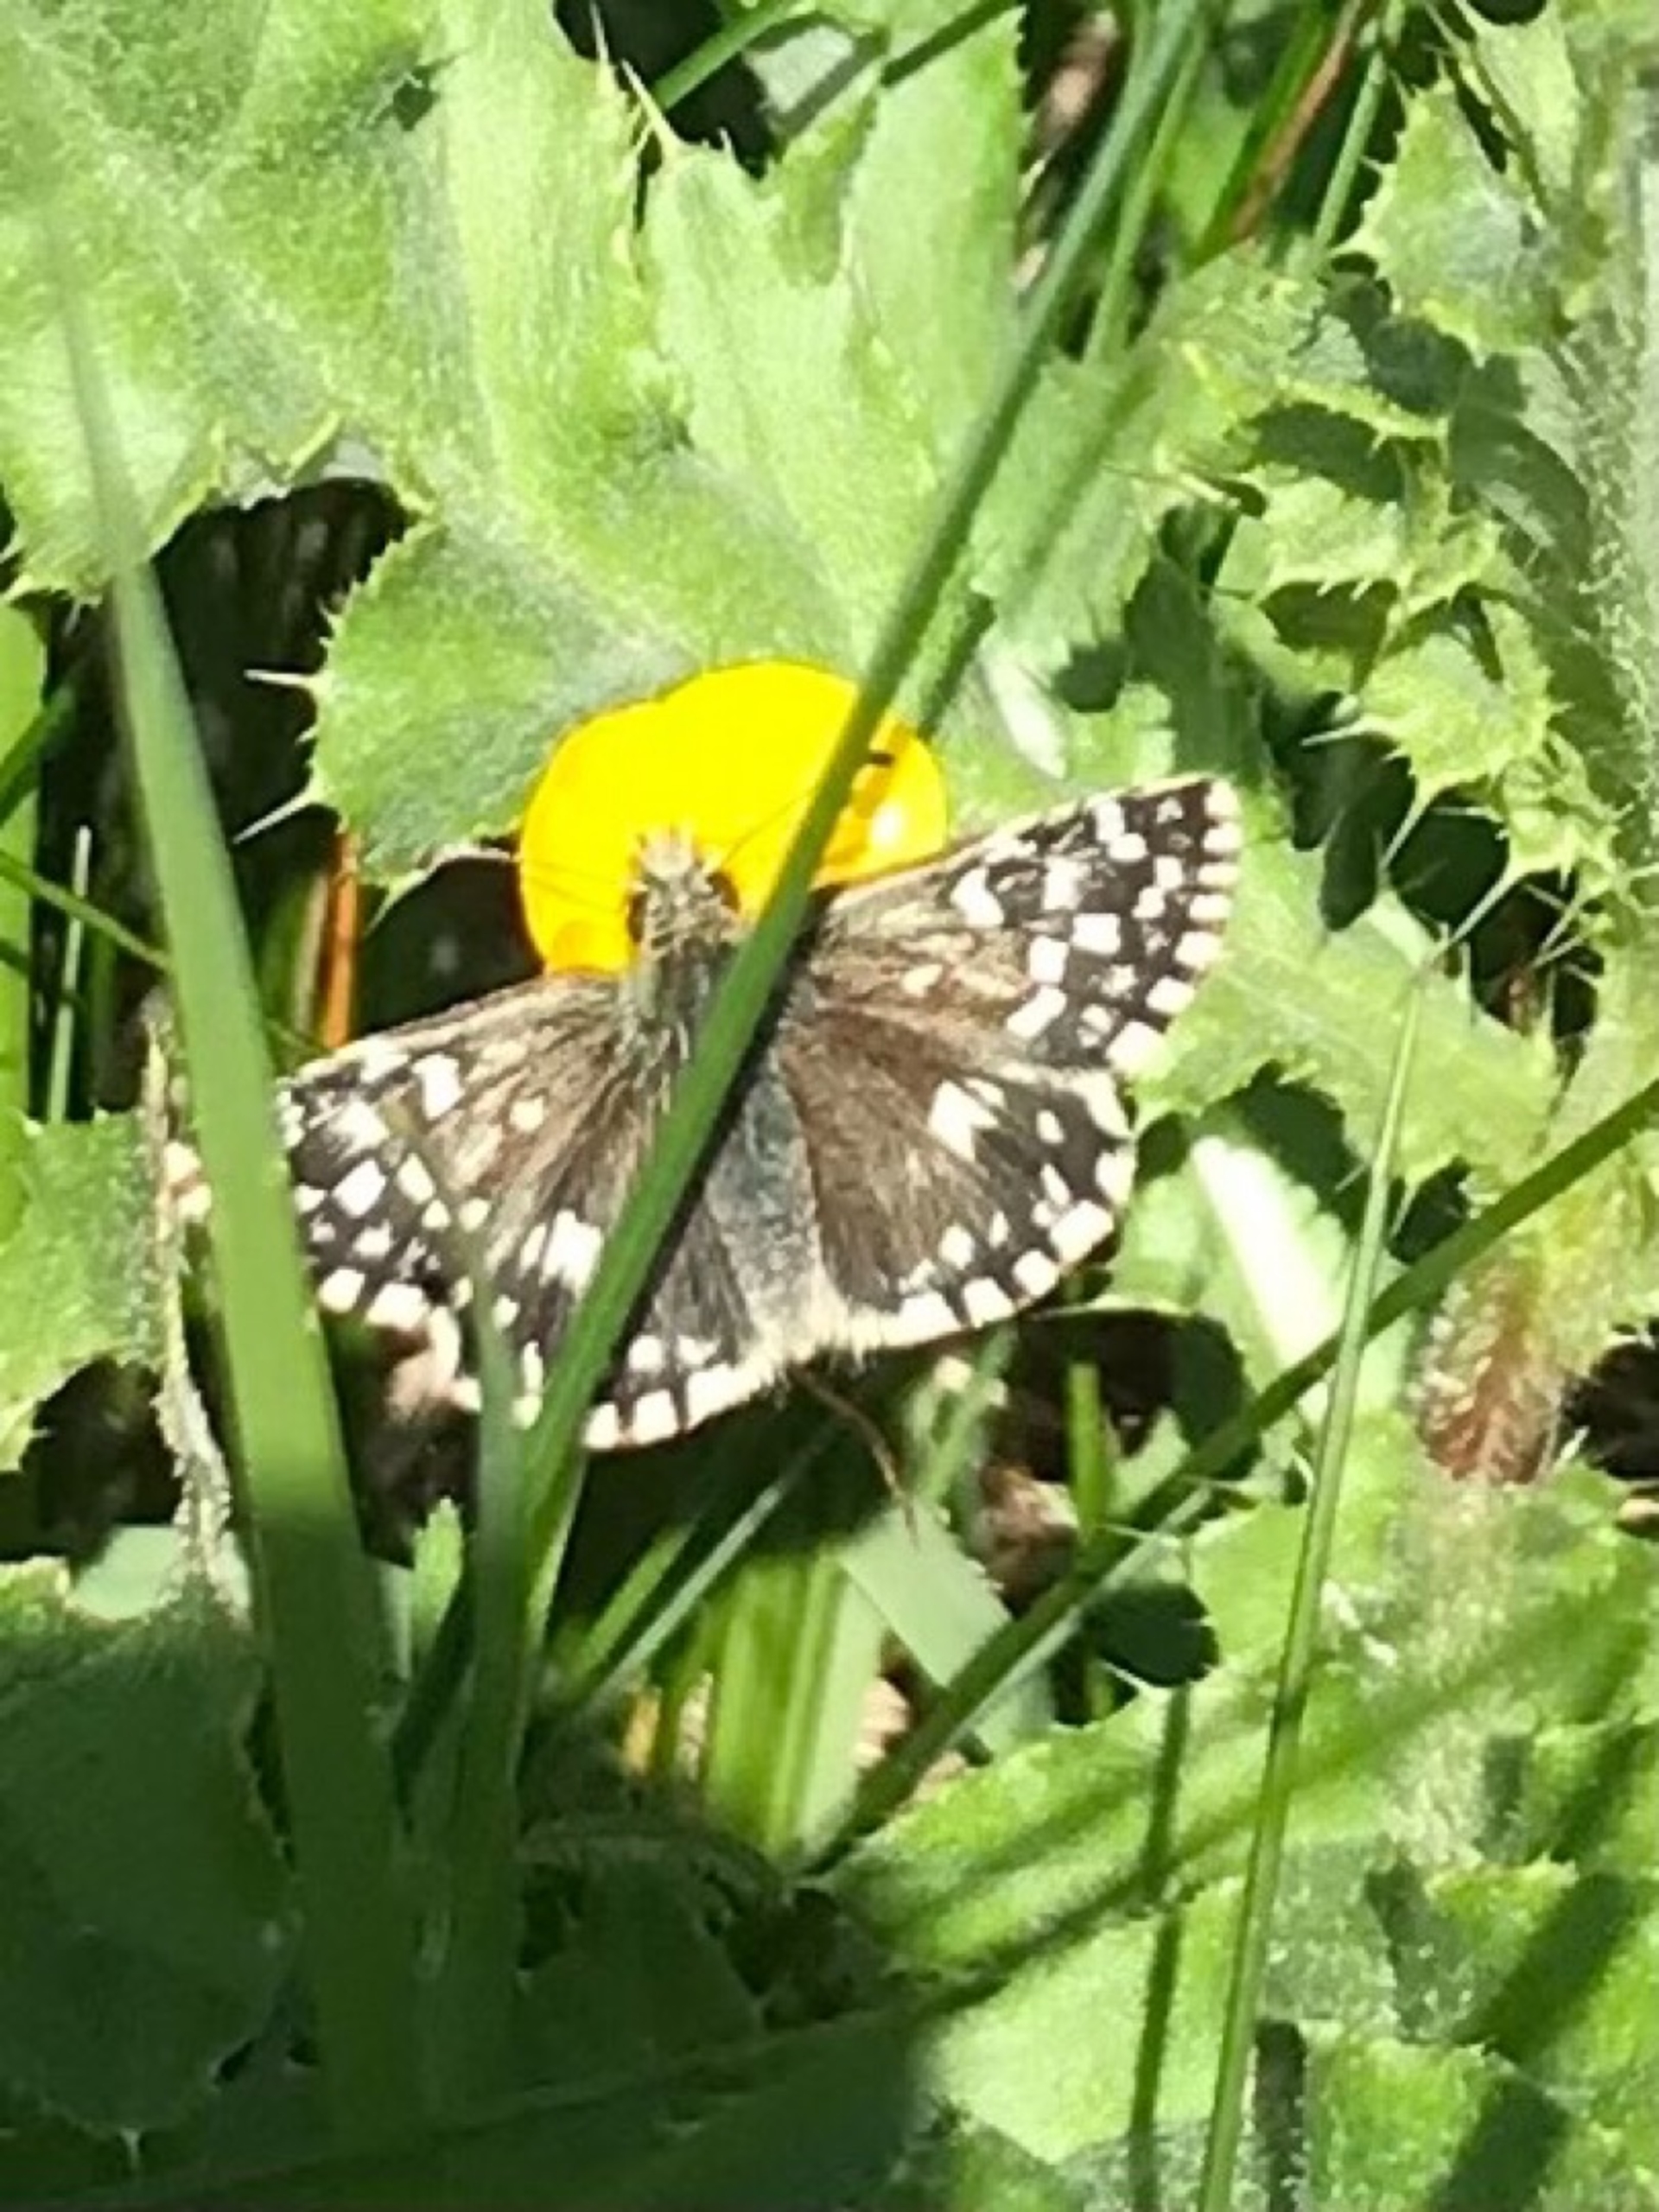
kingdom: Animalia
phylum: Arthropoda
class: Insecta
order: Lepidoptera
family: Hesperiidae
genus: Pyrgus
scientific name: Pyrgus malvae
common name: Spættet bredpande
